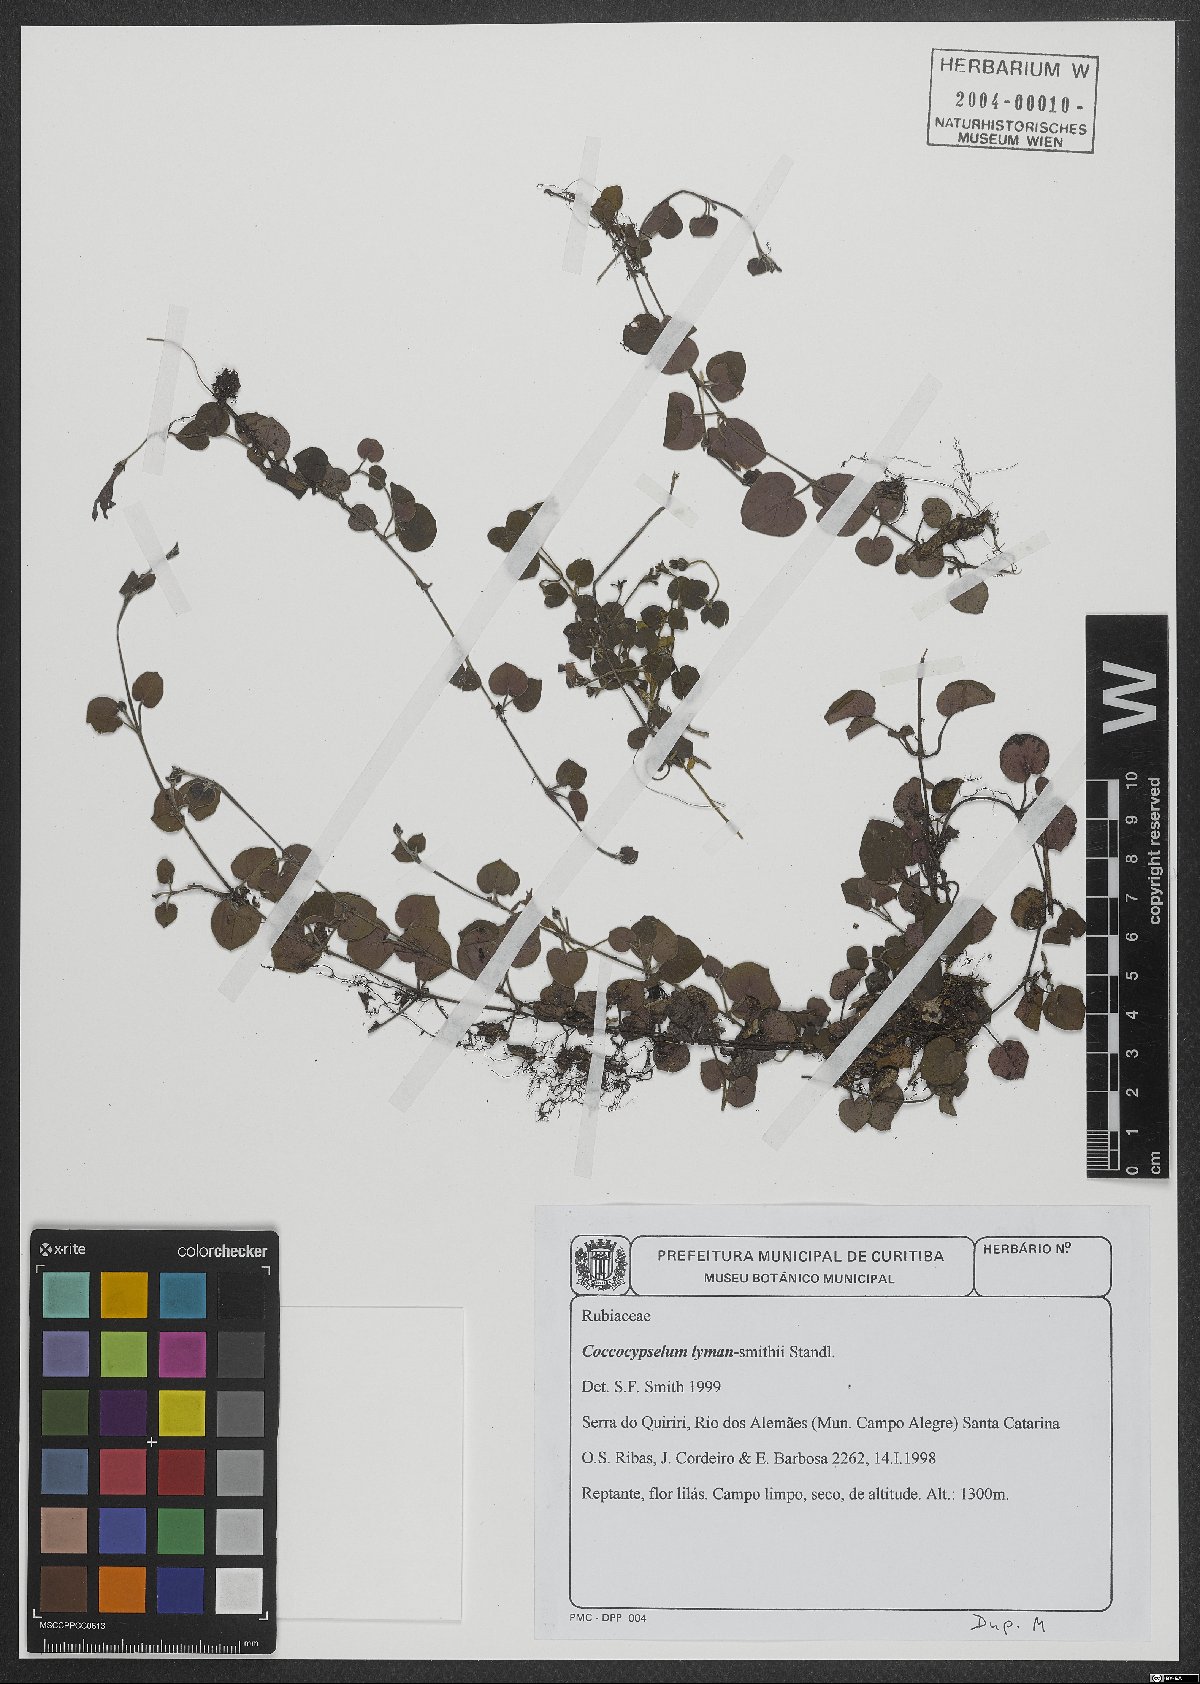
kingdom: Plantae
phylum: Tracheophyta
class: Magnoliopsida
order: Gentianales
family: Rubiaceae
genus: Coccocypselum
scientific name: Coccocypselum lymansmithii
